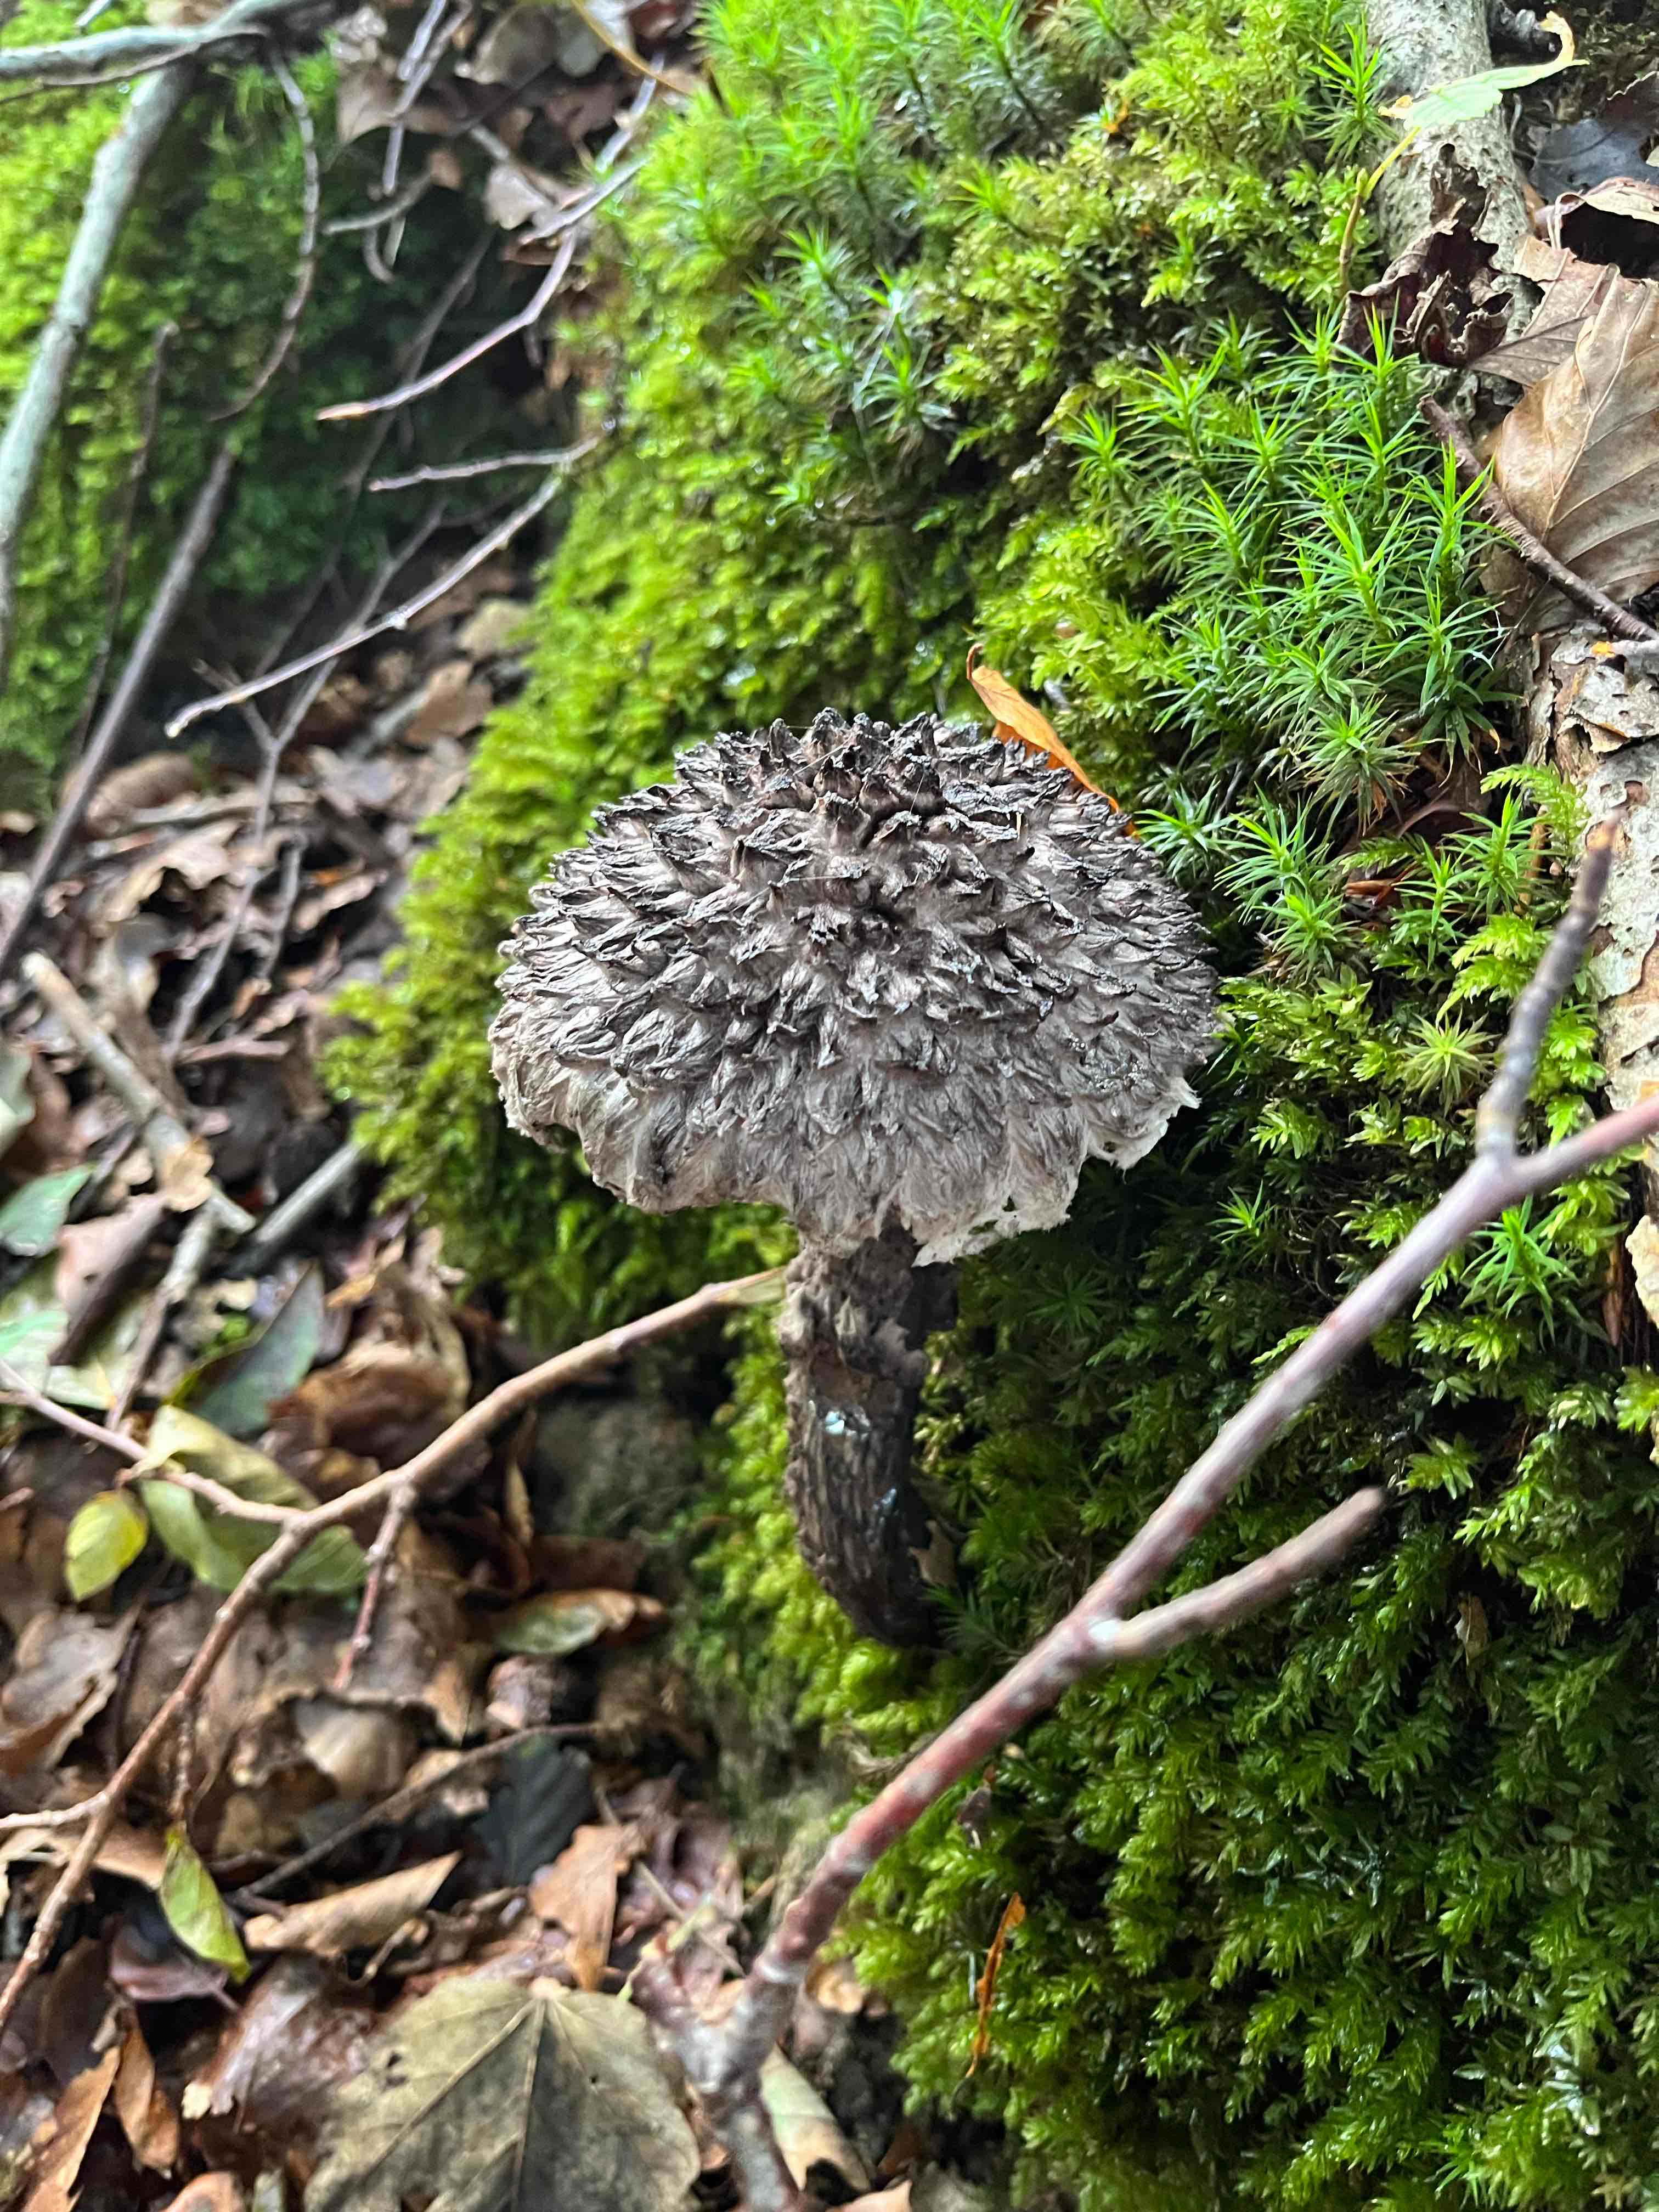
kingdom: Fungi
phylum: Basidiomycota
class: Agaricomycetes
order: Boletales
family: Boletaceae
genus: Strobilomyces
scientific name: Strobilomyces strobilaceus
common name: koglerørhat
